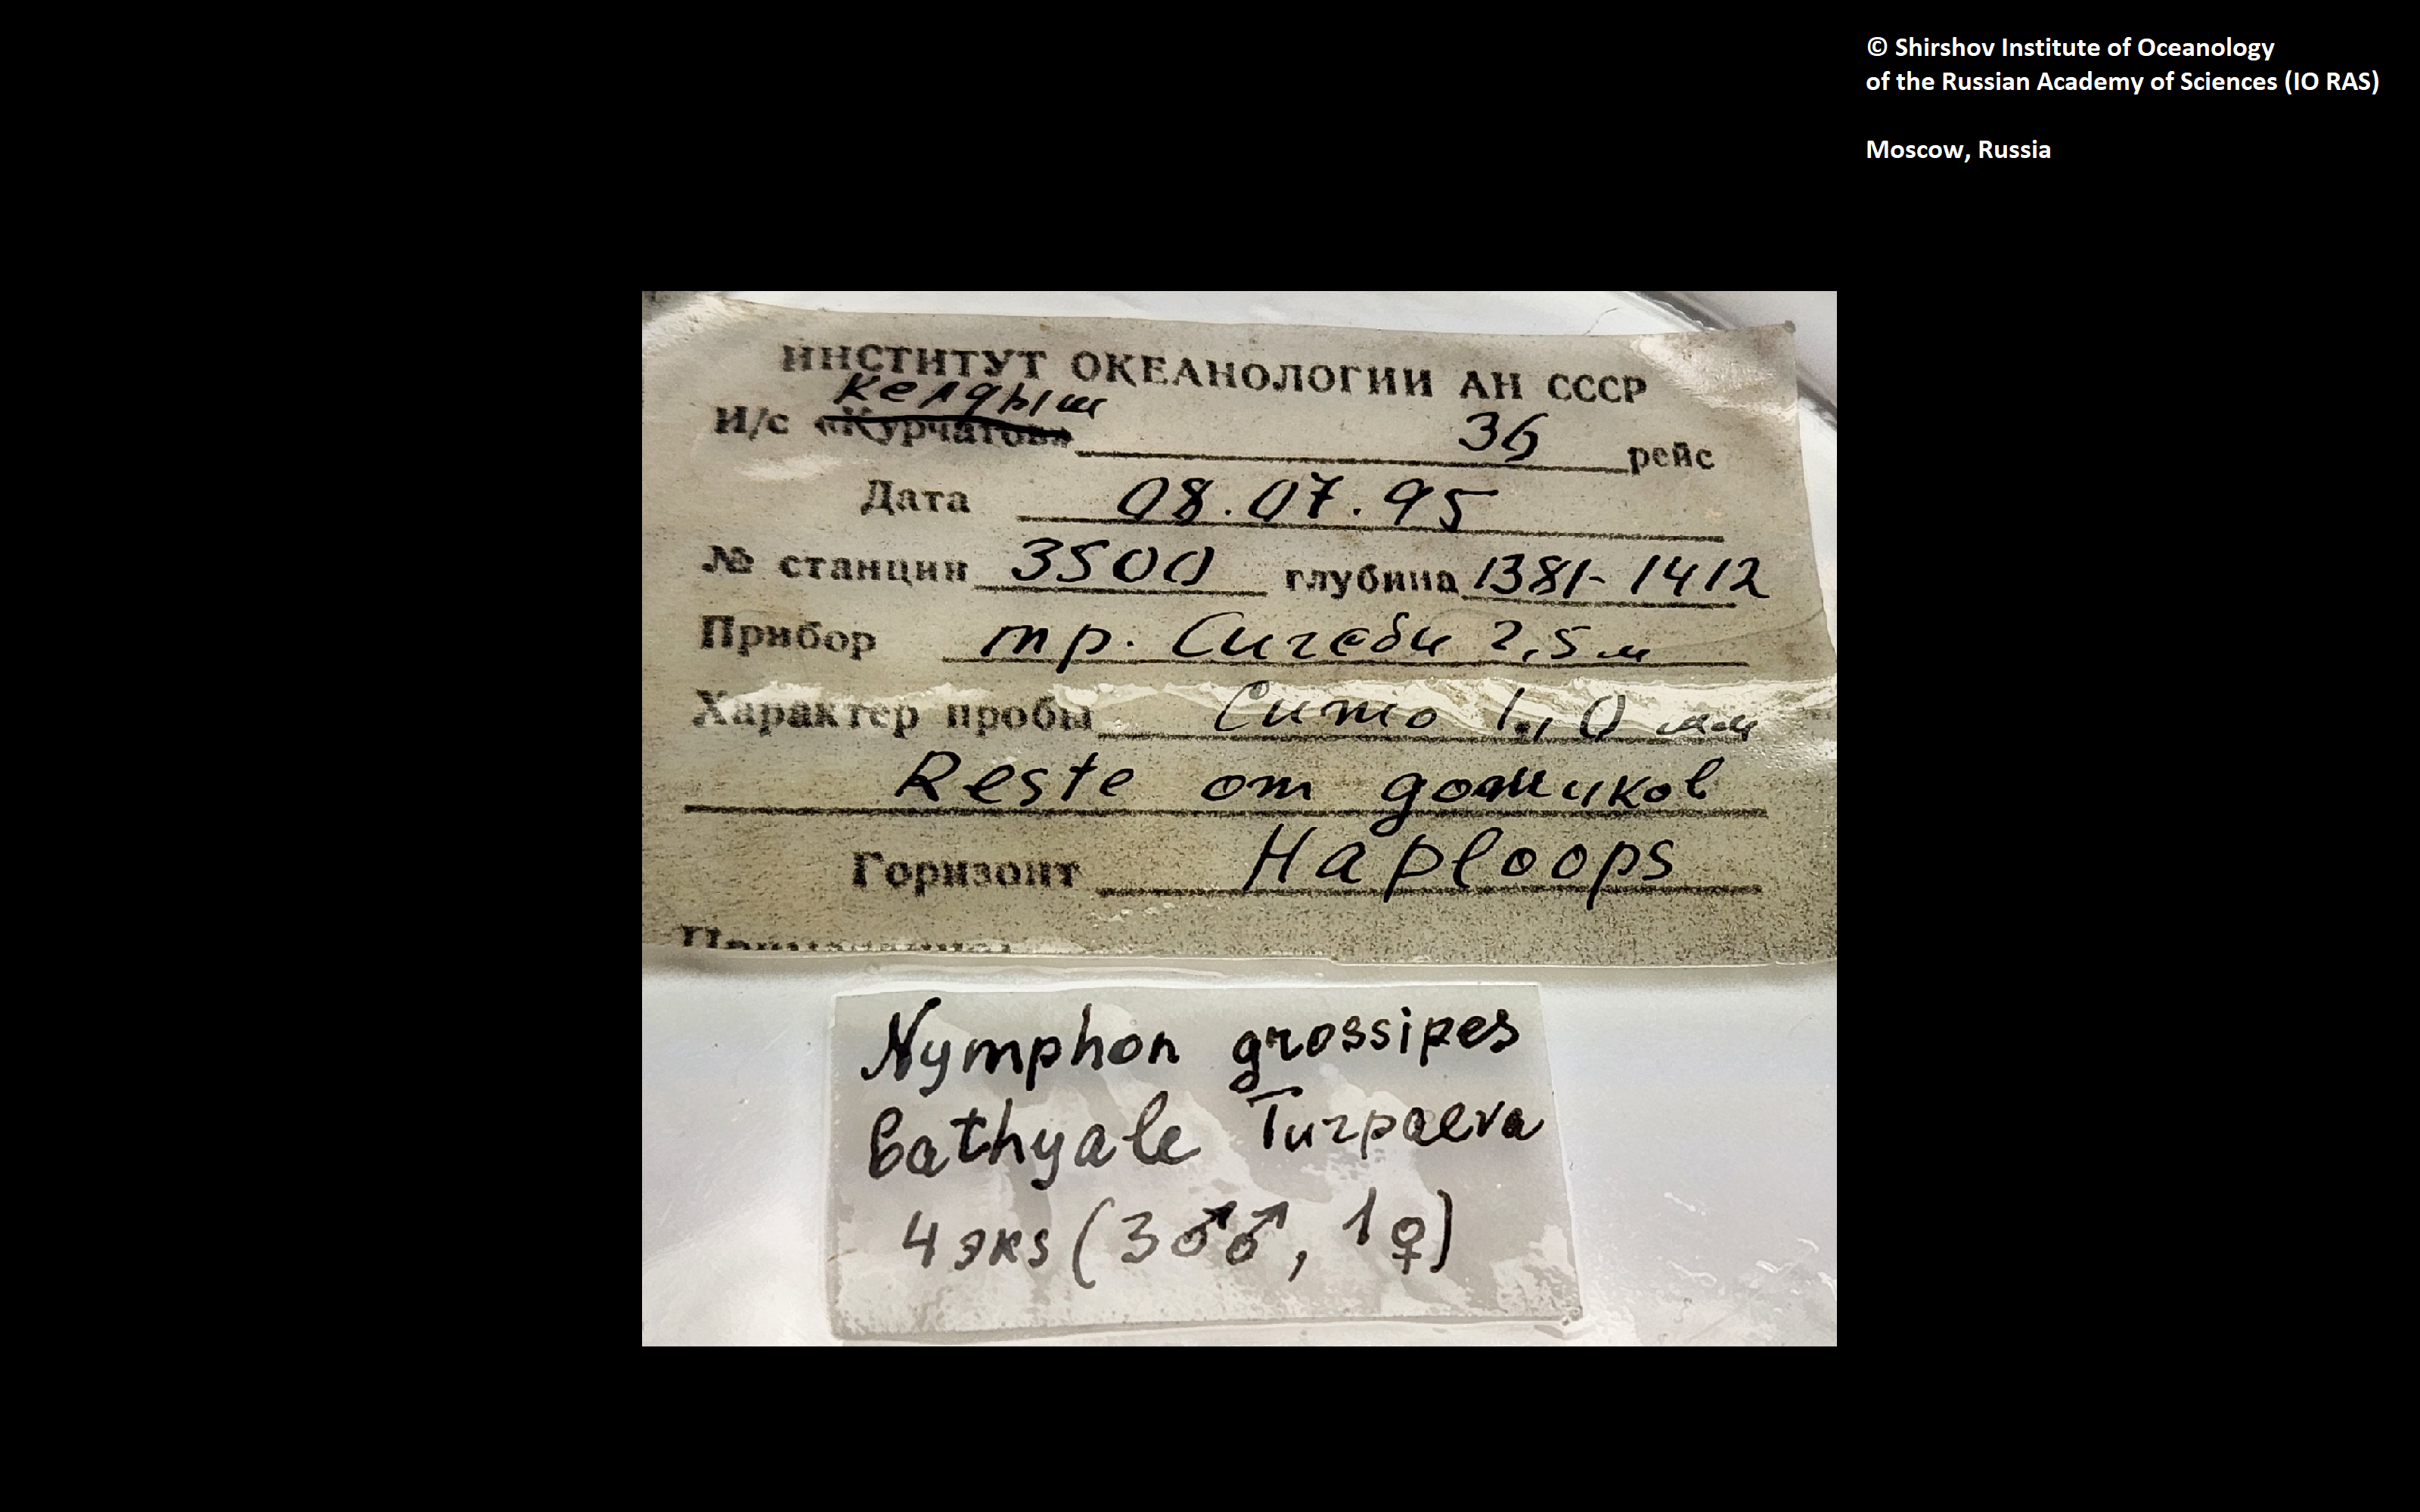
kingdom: Animalia
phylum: Arthropoda
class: Pycnogonida
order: Pantopoda
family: Nymphonidae
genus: Nymphon
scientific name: Nymphon grossipes
